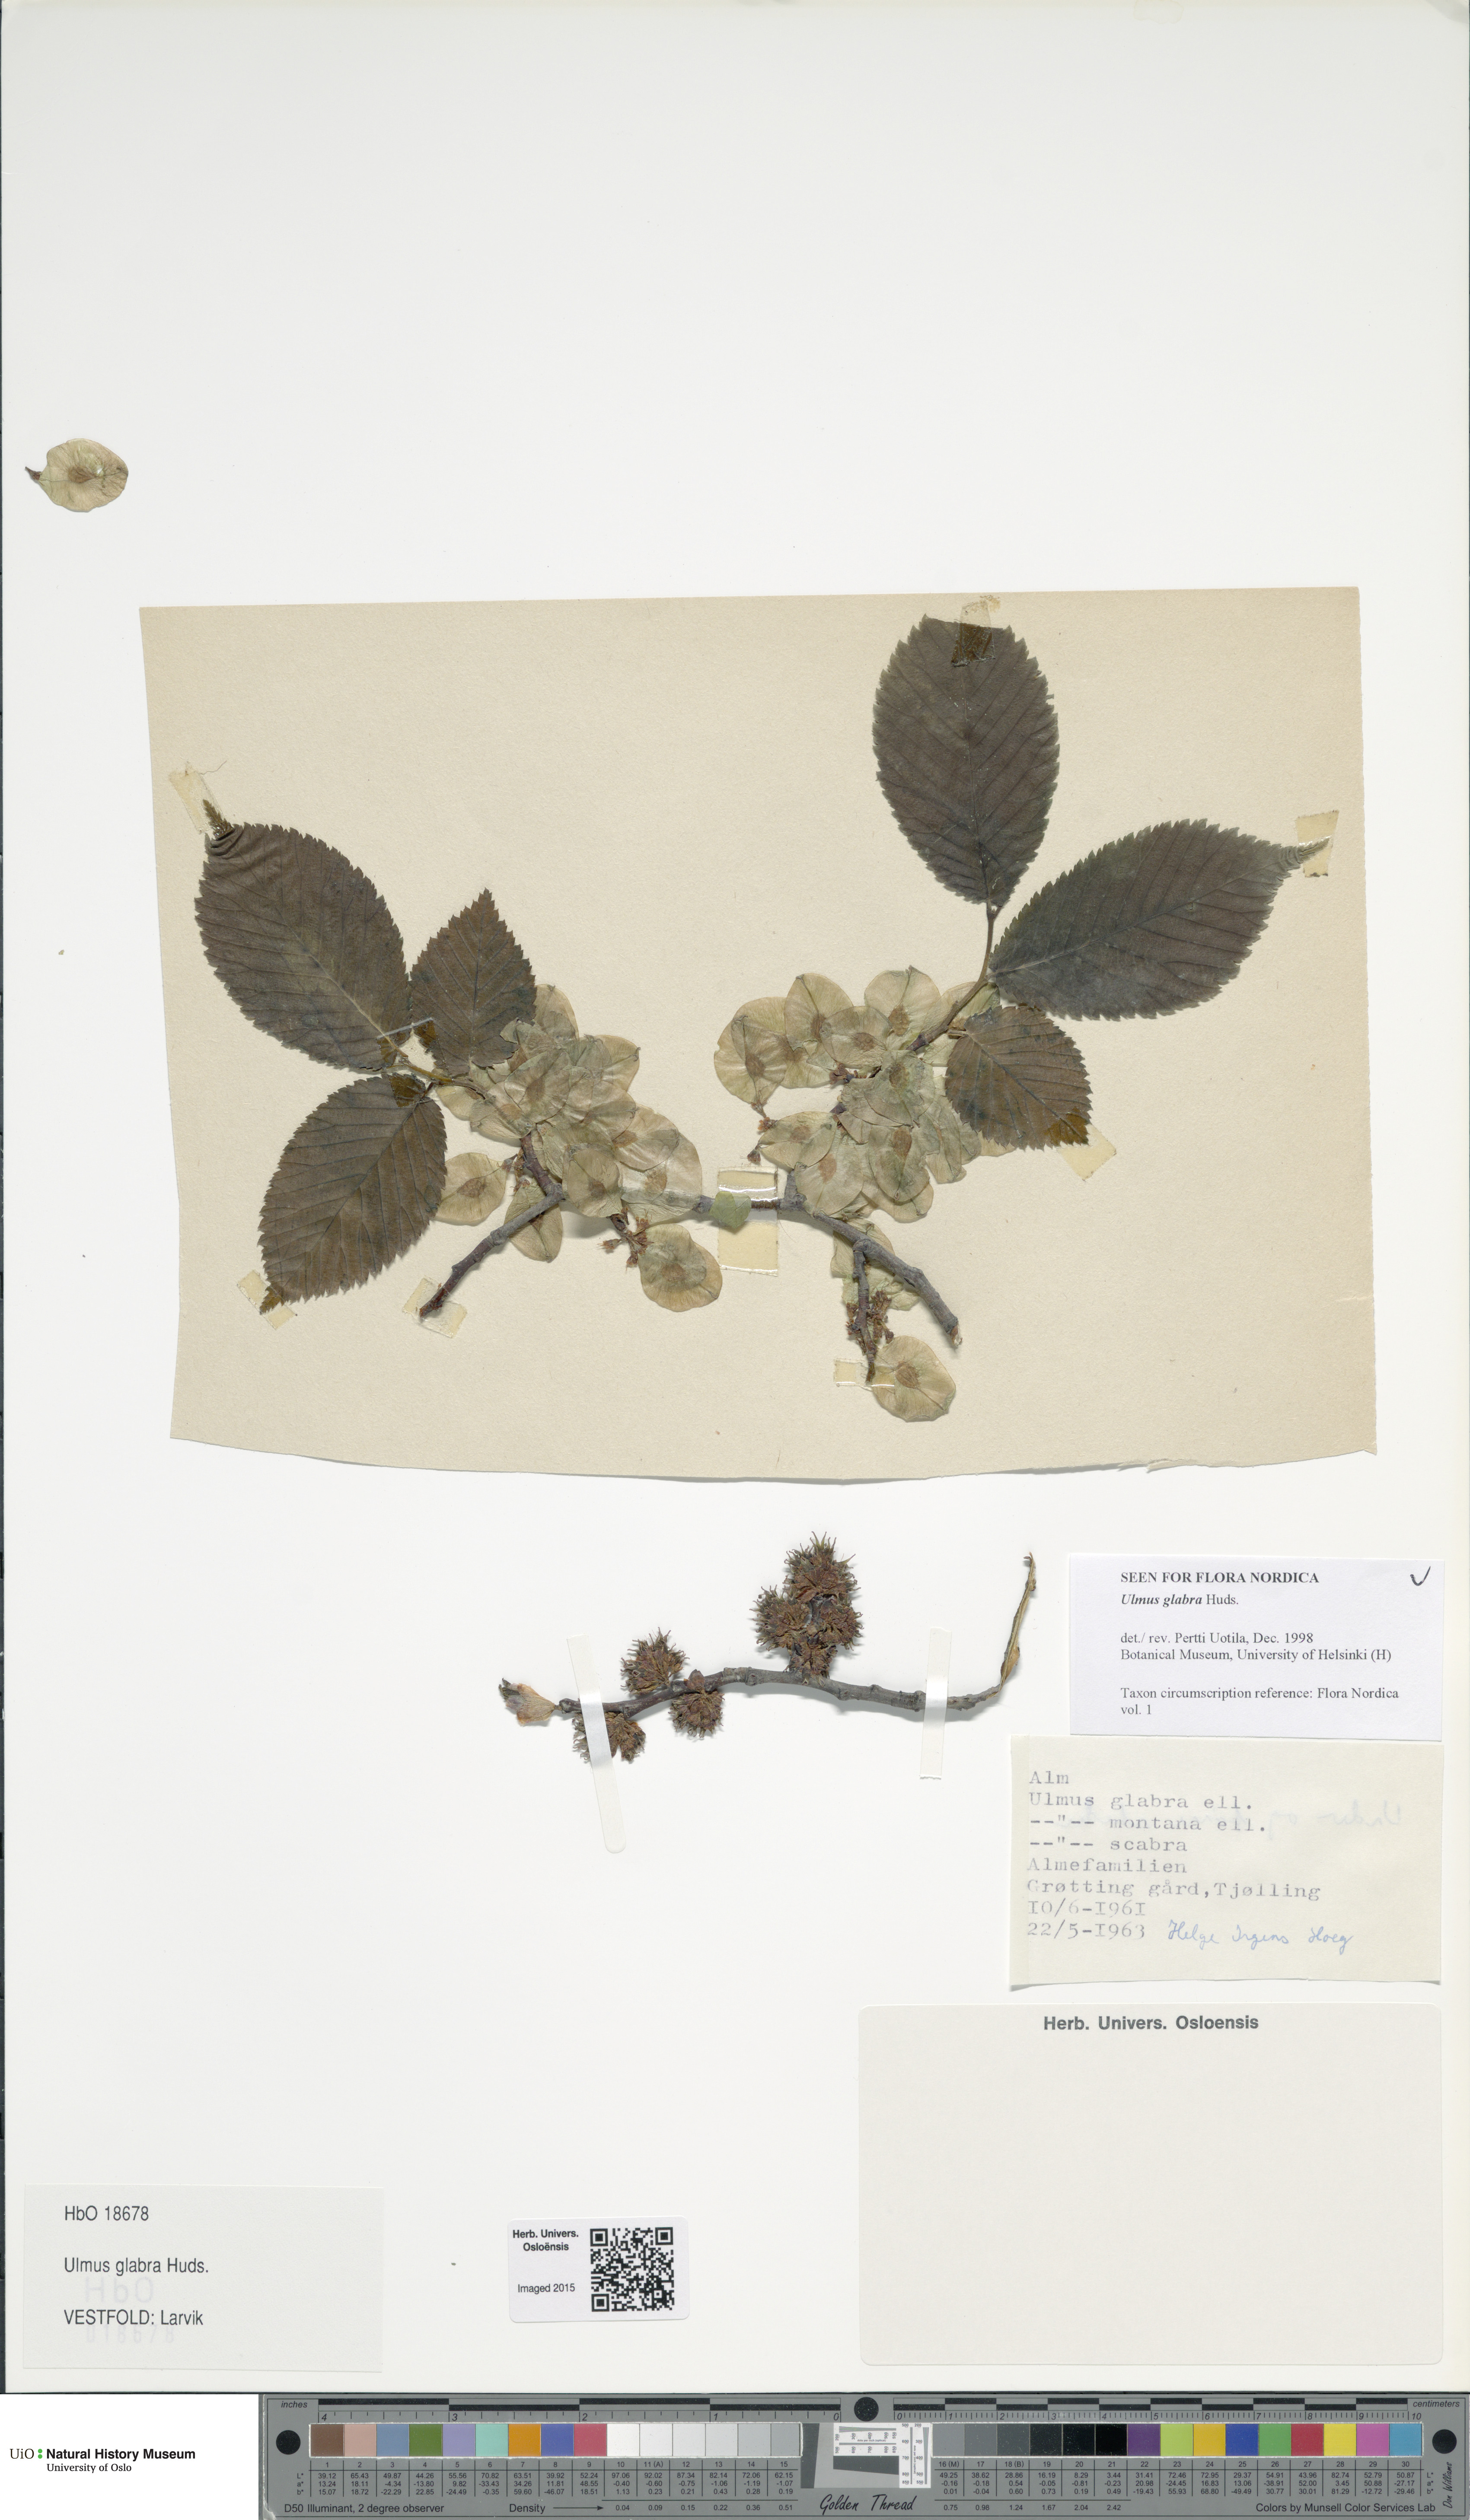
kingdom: Plantae
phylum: Tracheophyta
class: Magnoliopsida
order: Rosales
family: Ulmaceae
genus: Ulmus
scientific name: Ulmus glabra
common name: Wych elm
